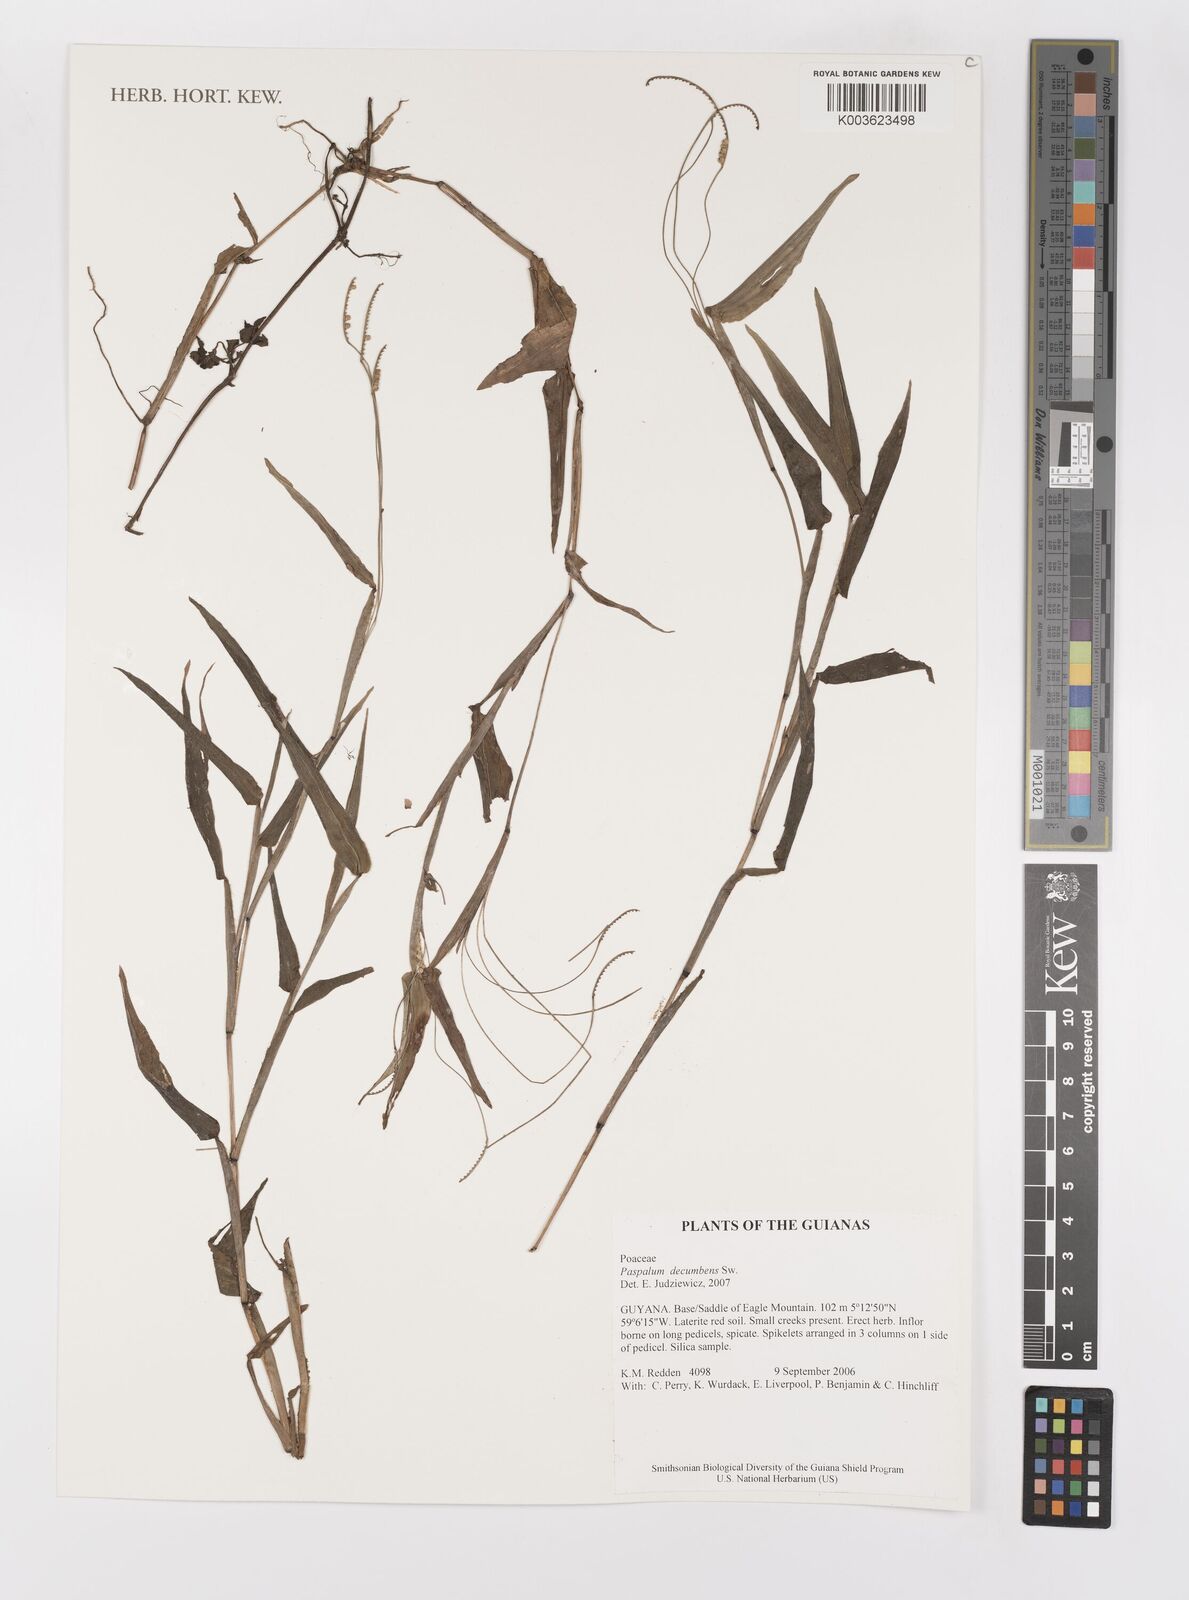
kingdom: Plantae
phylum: Tracheophyta
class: Liliopsida
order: Poales
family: Poaceae
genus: Paspalum
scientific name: Paspalum decumbens
